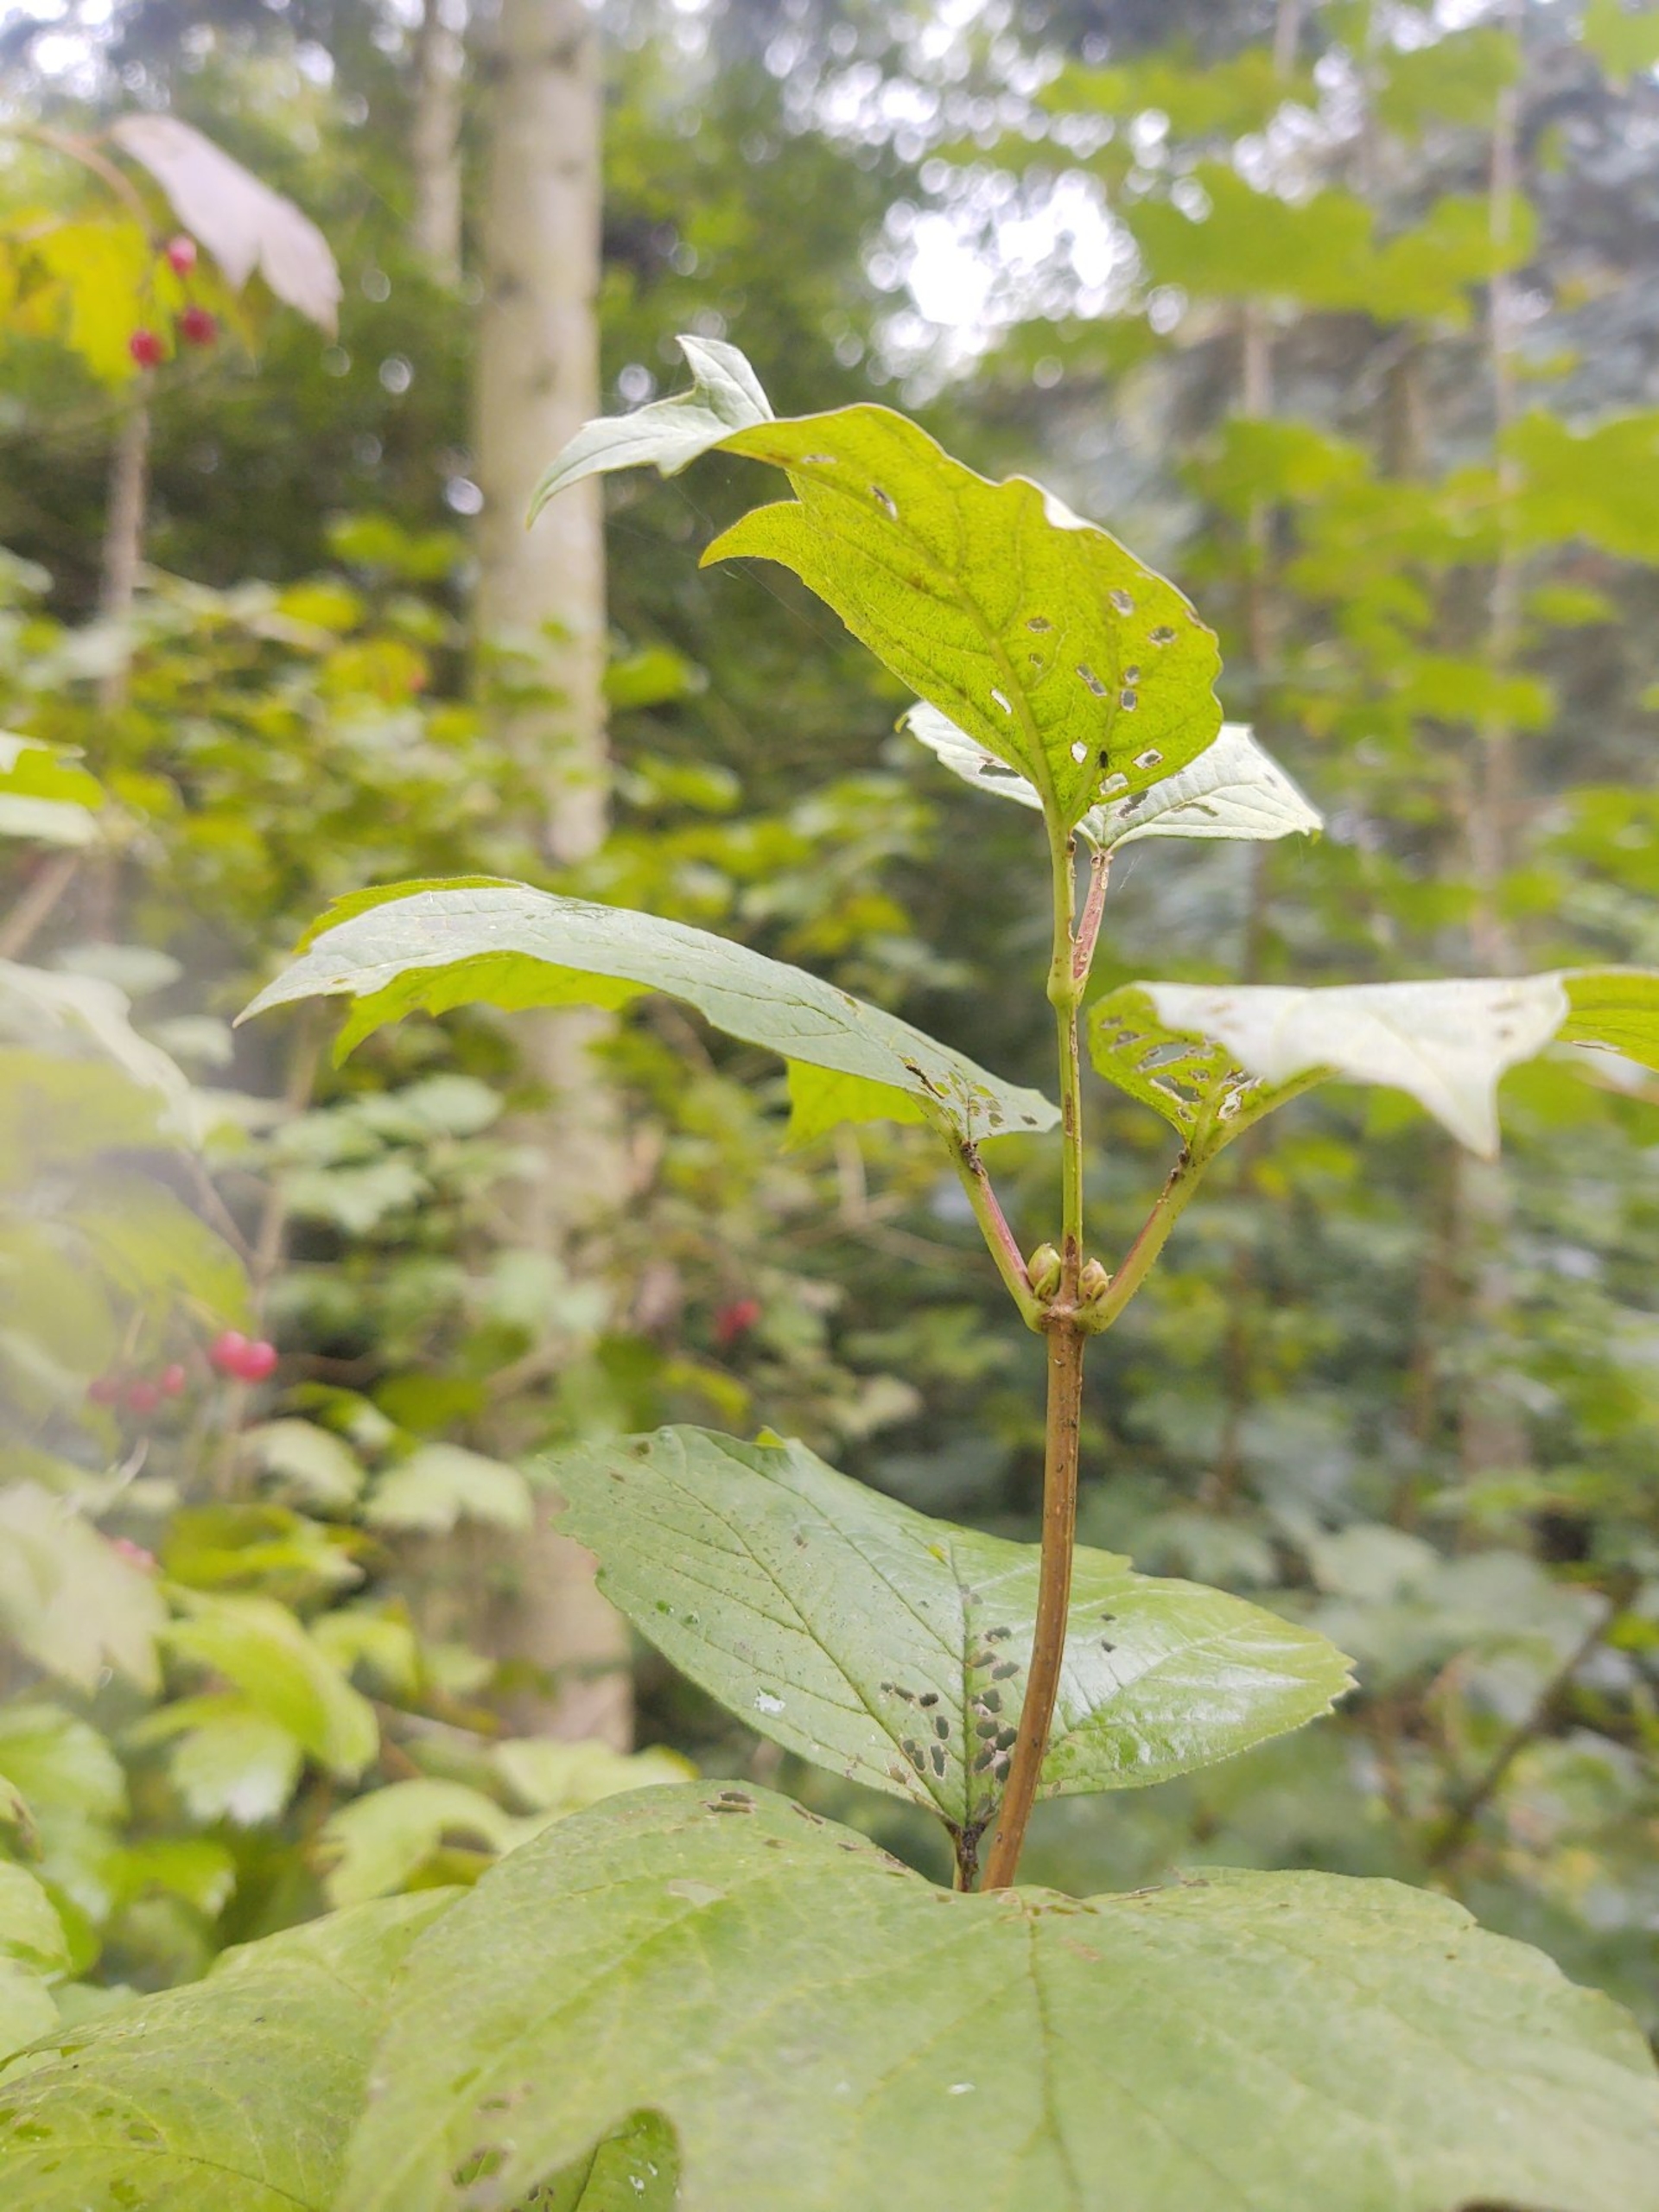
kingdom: Plantae
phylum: Tracheophyta
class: Magnoliopsida
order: Dipsacales
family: Viburnaceae
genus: Viburnum
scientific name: Viburnum opulus
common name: Kvalkved
